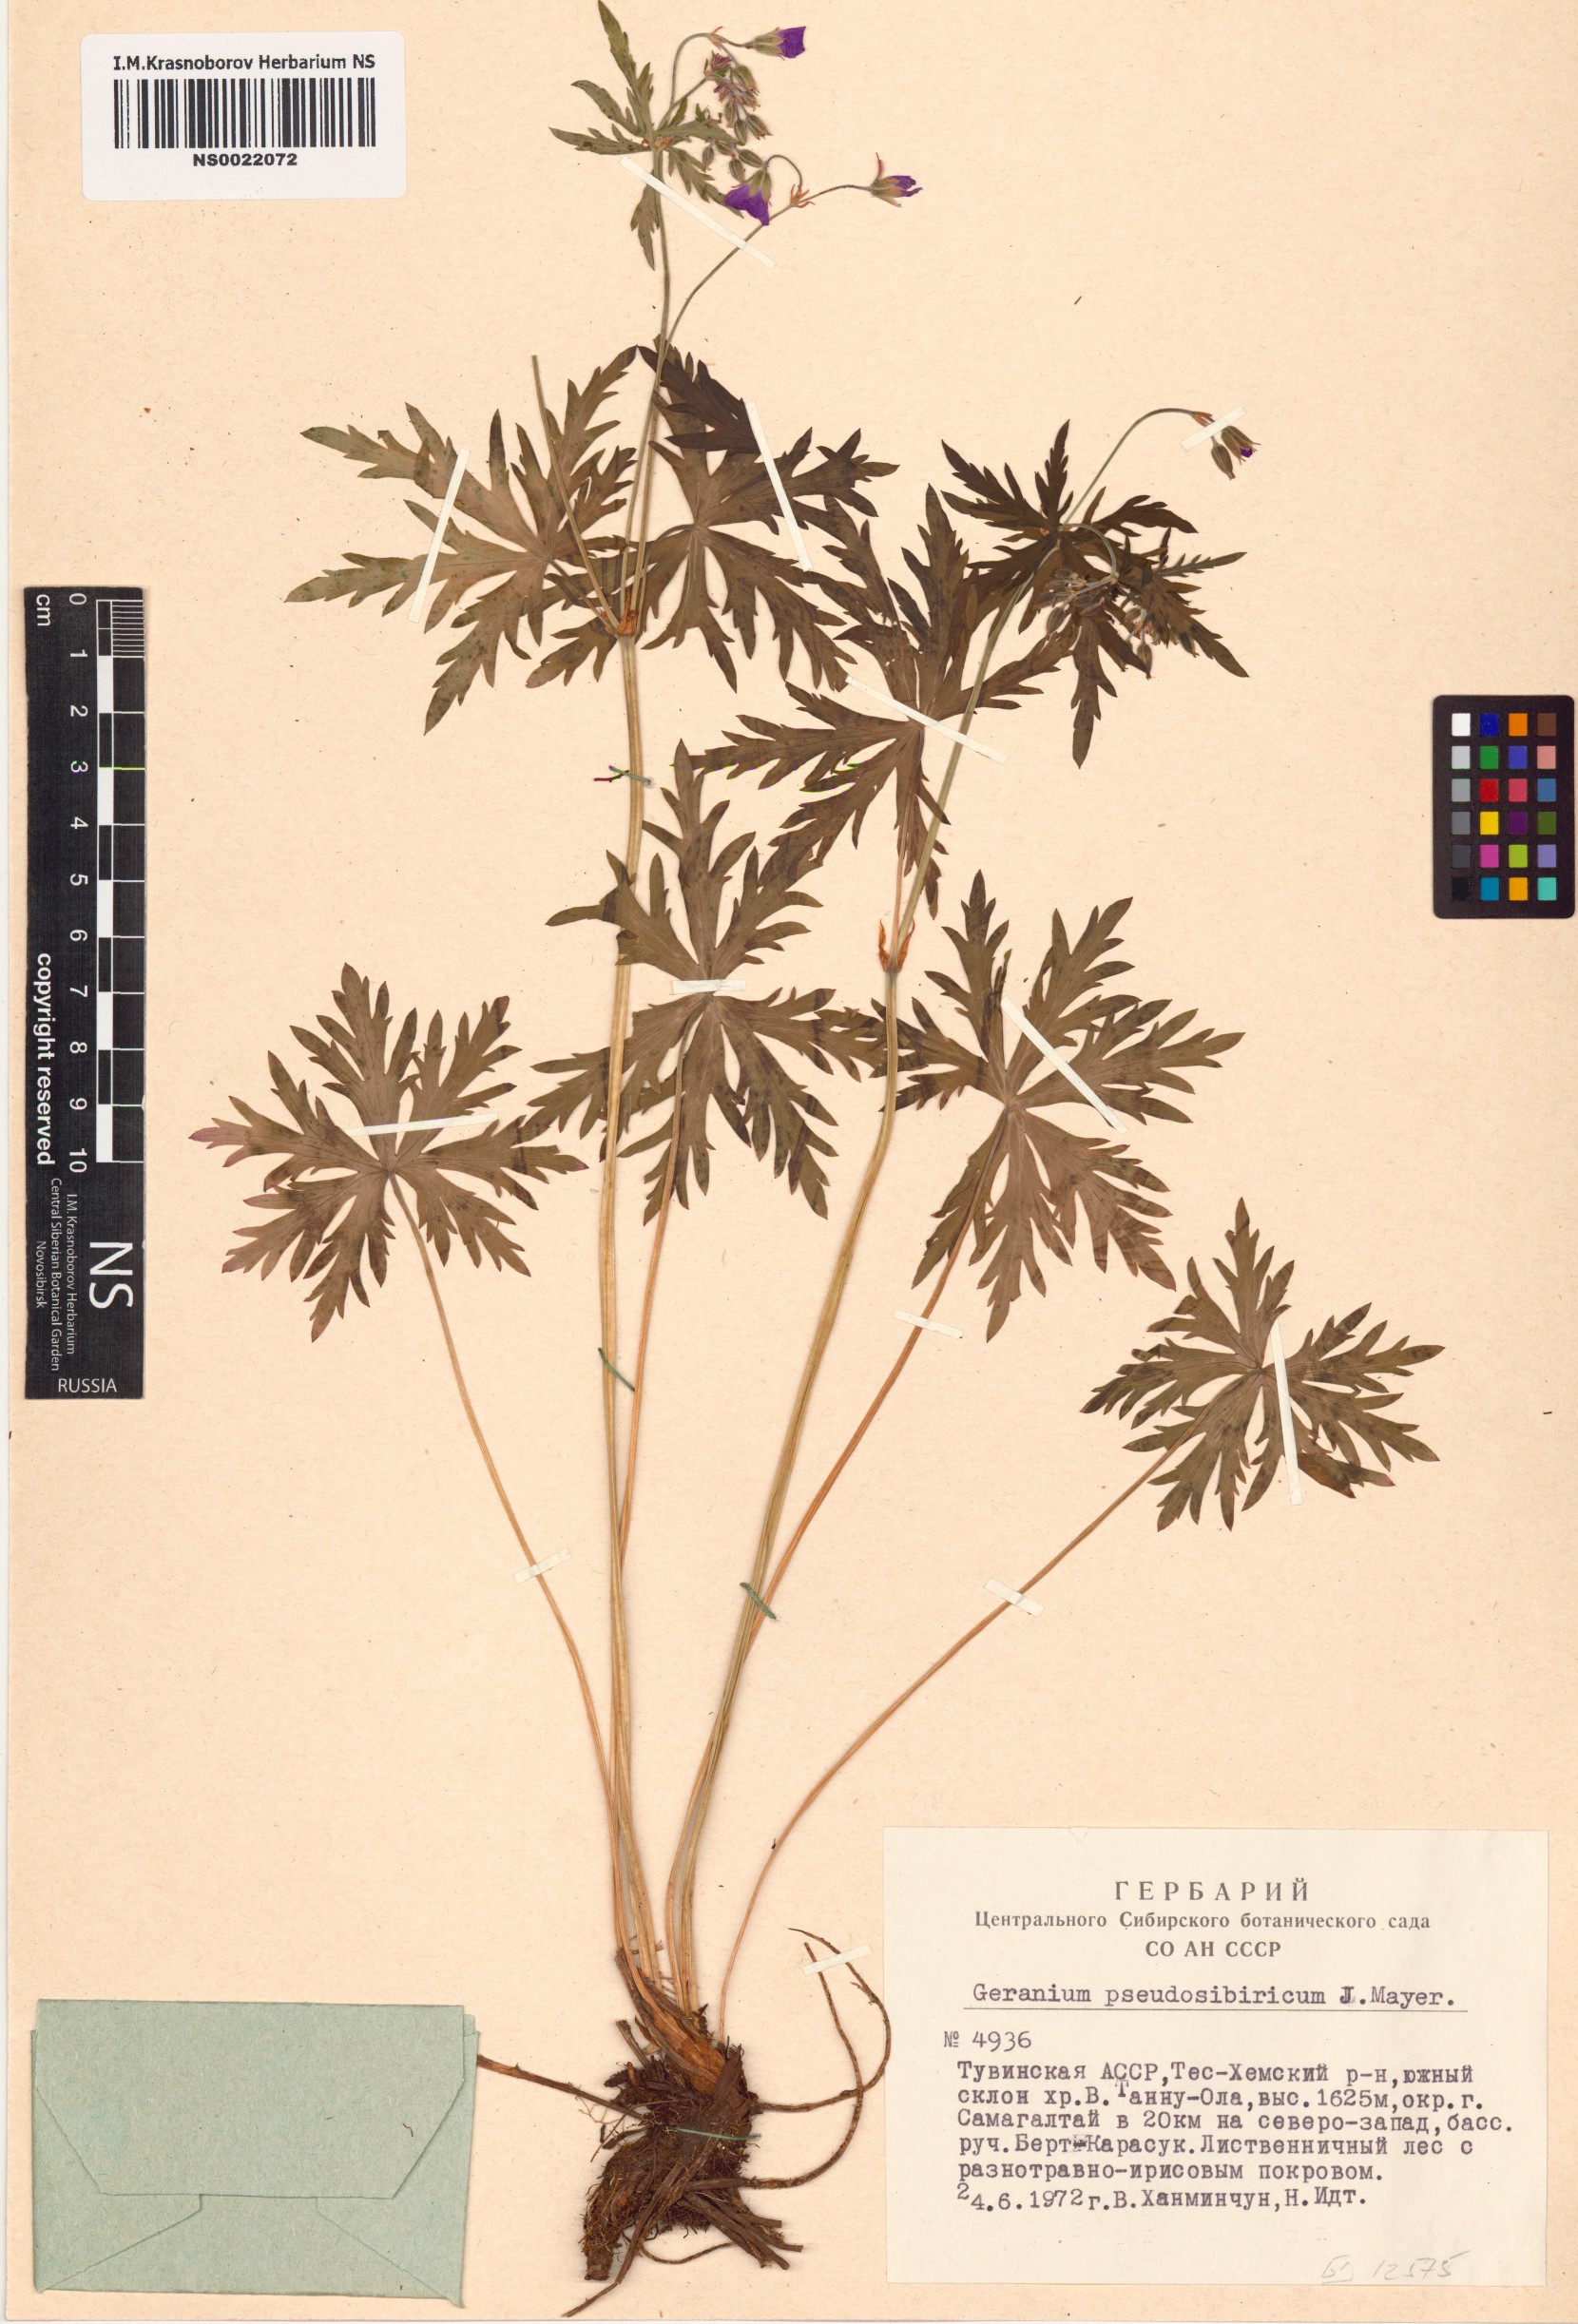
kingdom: Plantae
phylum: Tracheophyta
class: Magnoliopsida
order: Geraniales
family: Geraniaceae
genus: Geranium
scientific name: Geranium pseudosibiricum
